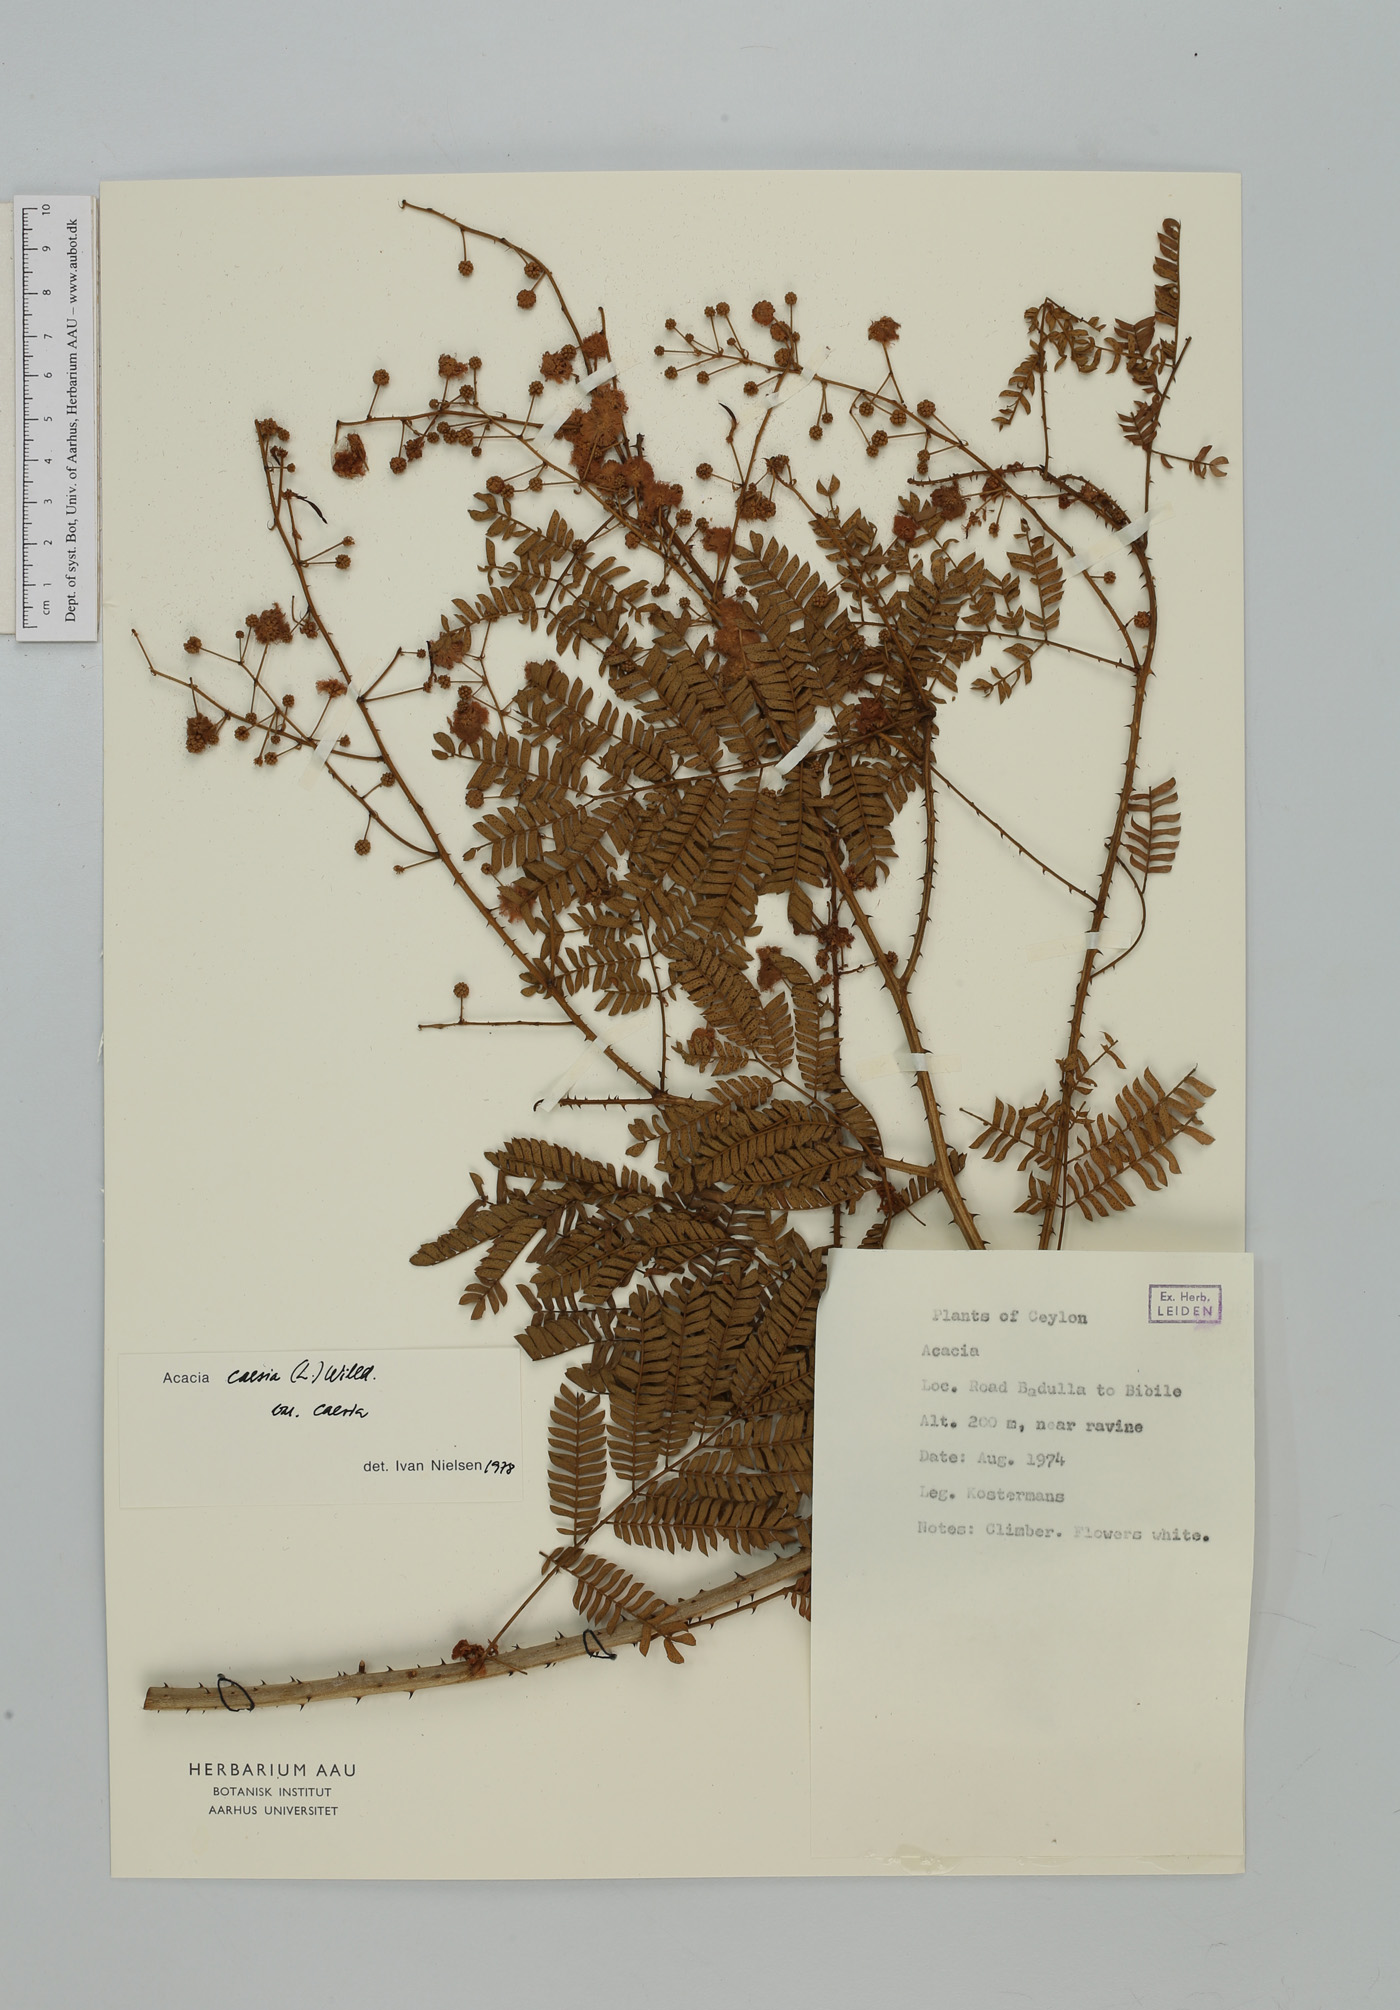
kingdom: Plantae
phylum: Tracheophyta
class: Magnoliopsida
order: Fabales
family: Fabaceae
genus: Senegalia
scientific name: Senegalia caesia
